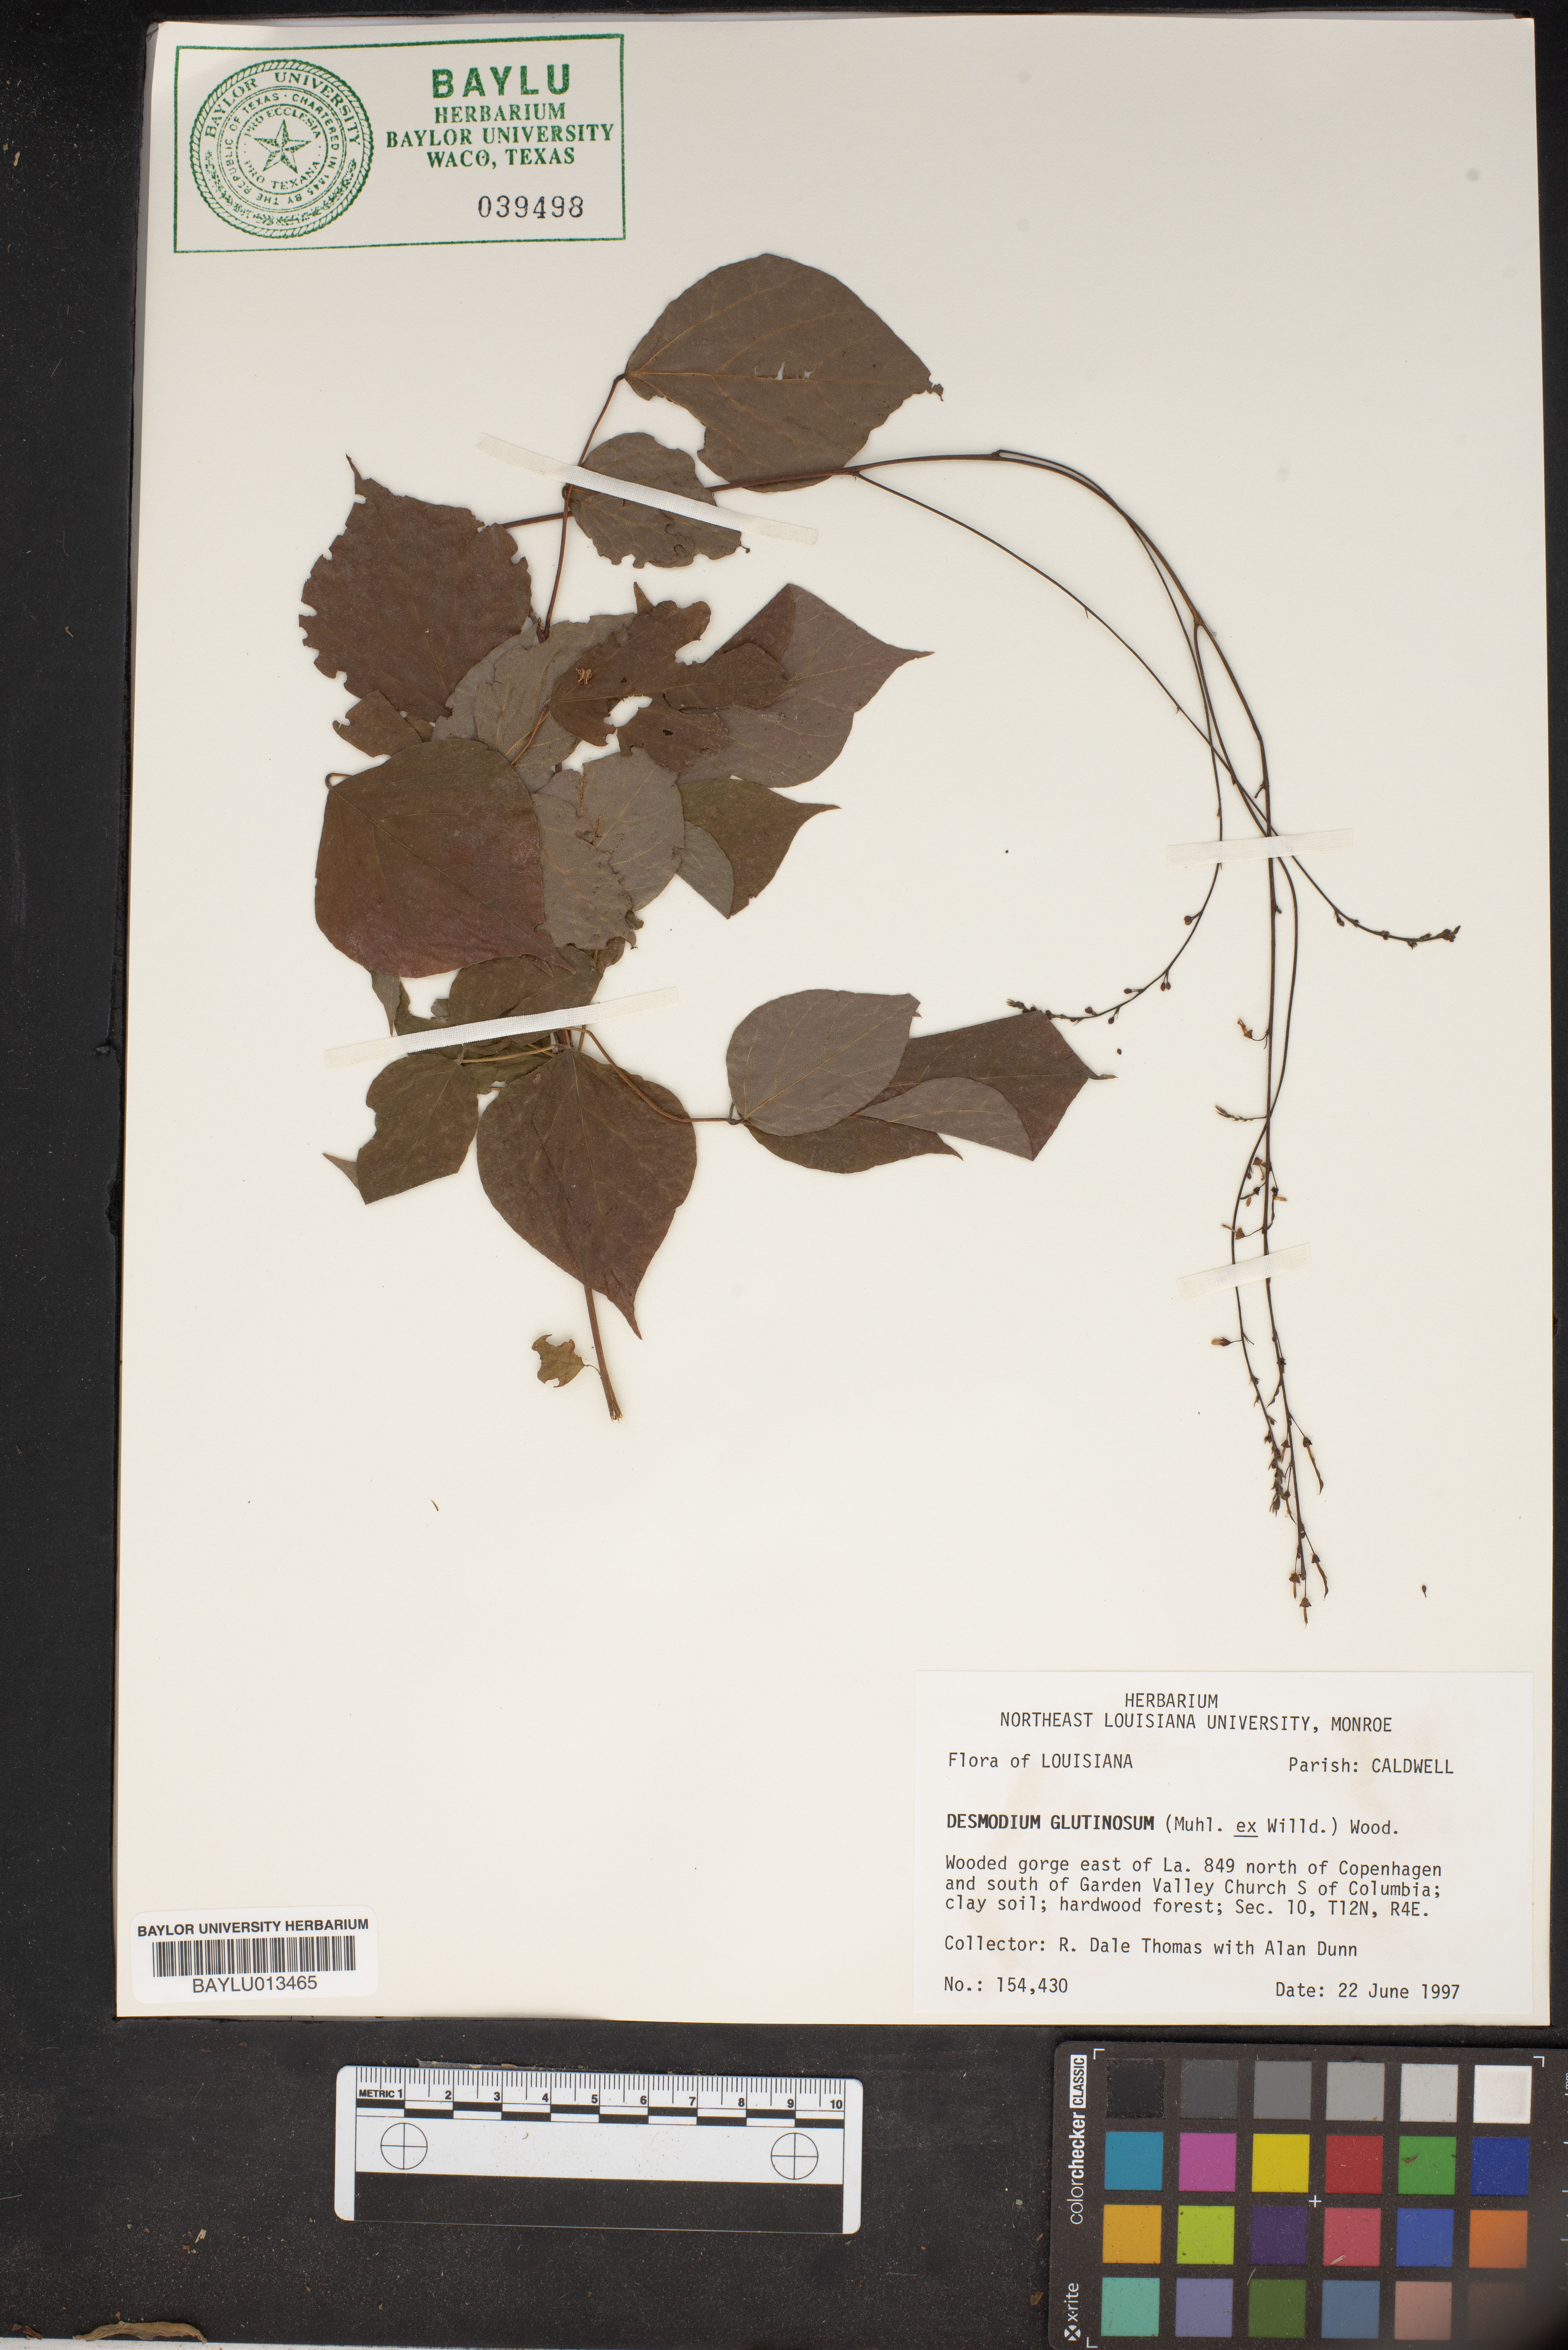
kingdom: Plantae
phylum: Tracheophyta
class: Magnoliopsida
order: Fabales
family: Fabaceae
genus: Hylodesmum
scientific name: Hylodesmum glutinosum
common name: Clustered-leaved tick-trefoil
